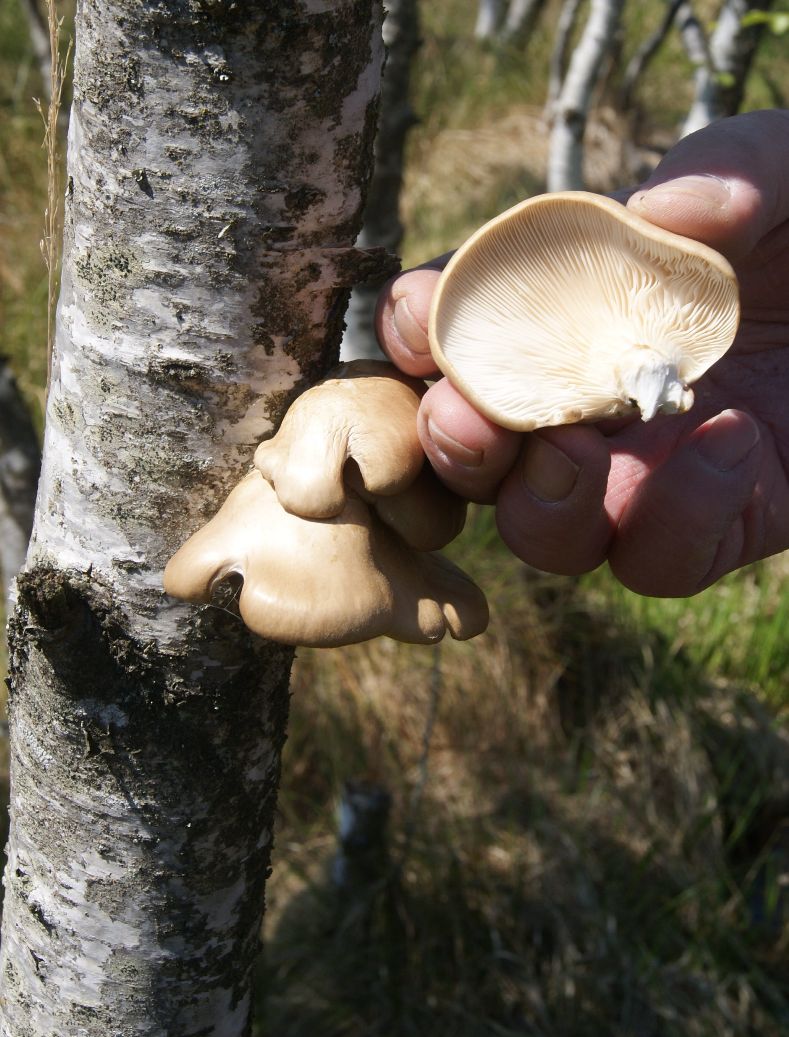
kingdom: Fungi
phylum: Basidiomycota
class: Agaricomycetes
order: Agaricales
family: Pleurotaceae
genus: Pleurotus
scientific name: Pleurotus ostreatus
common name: Oyster mushroom
